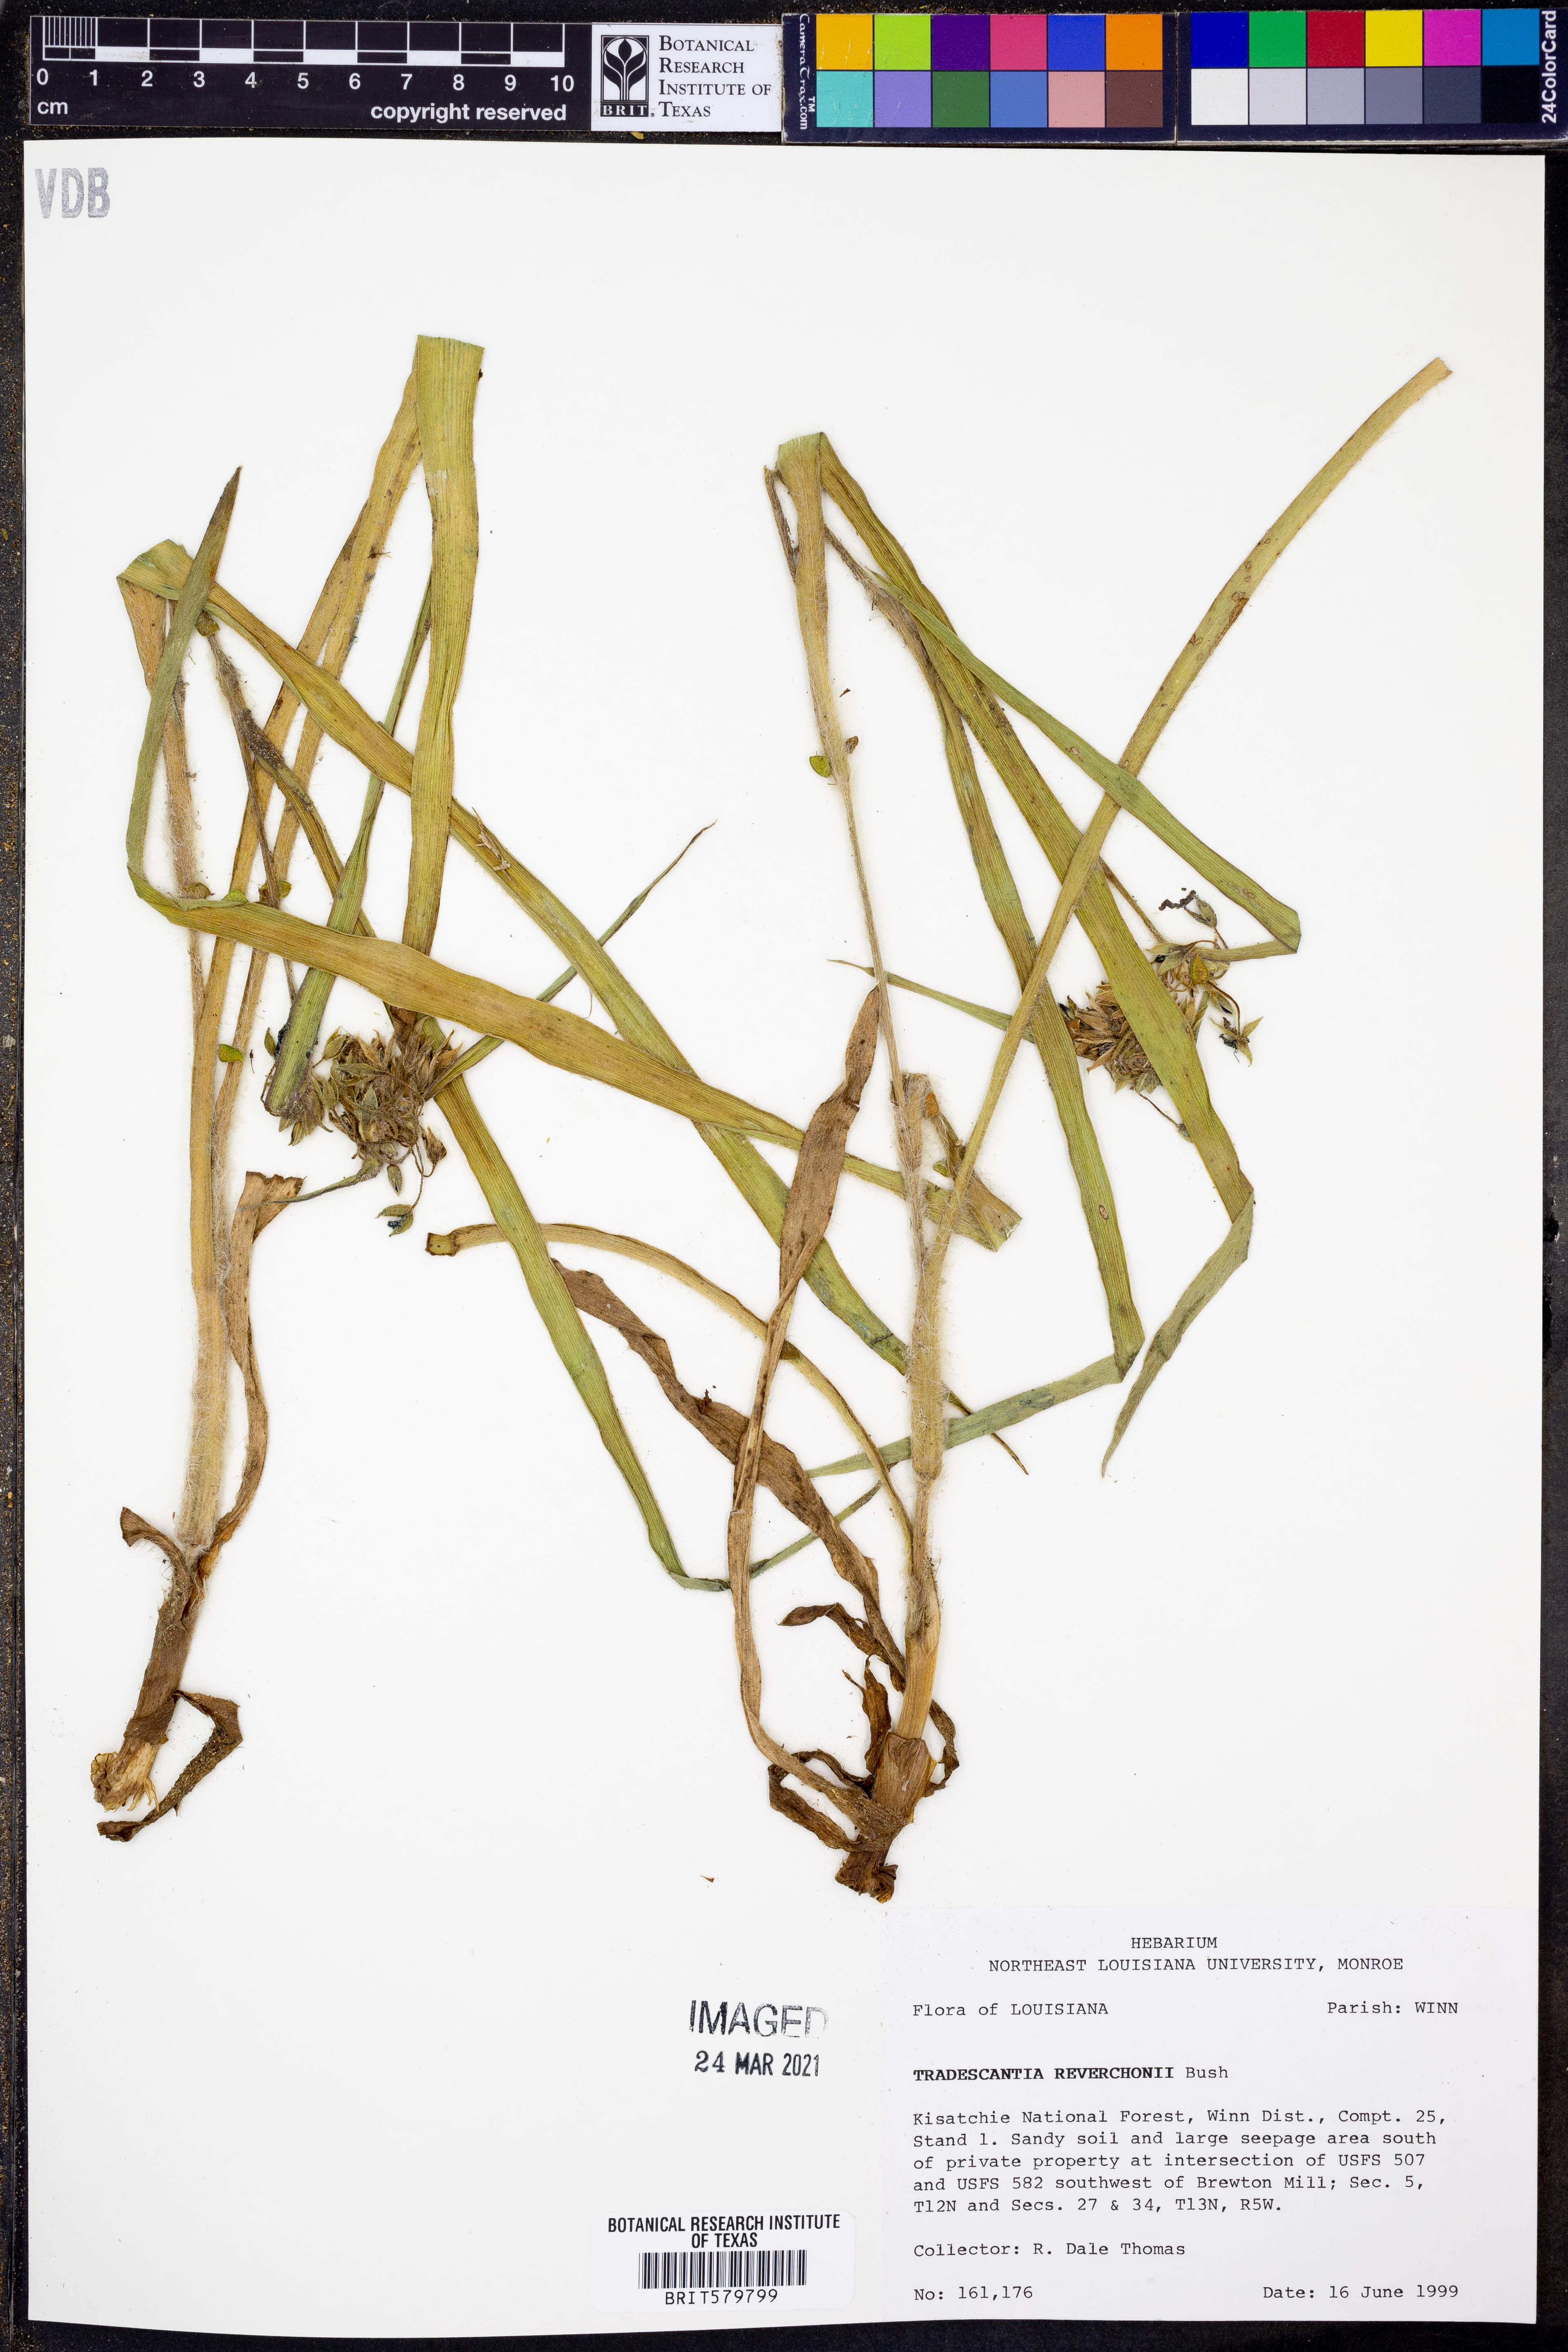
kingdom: Plantae
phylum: Tracheophyta
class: Liliopsida
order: Commelinales
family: Commelinaceae
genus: Tradescantia
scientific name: Tradescantia reverchonii
